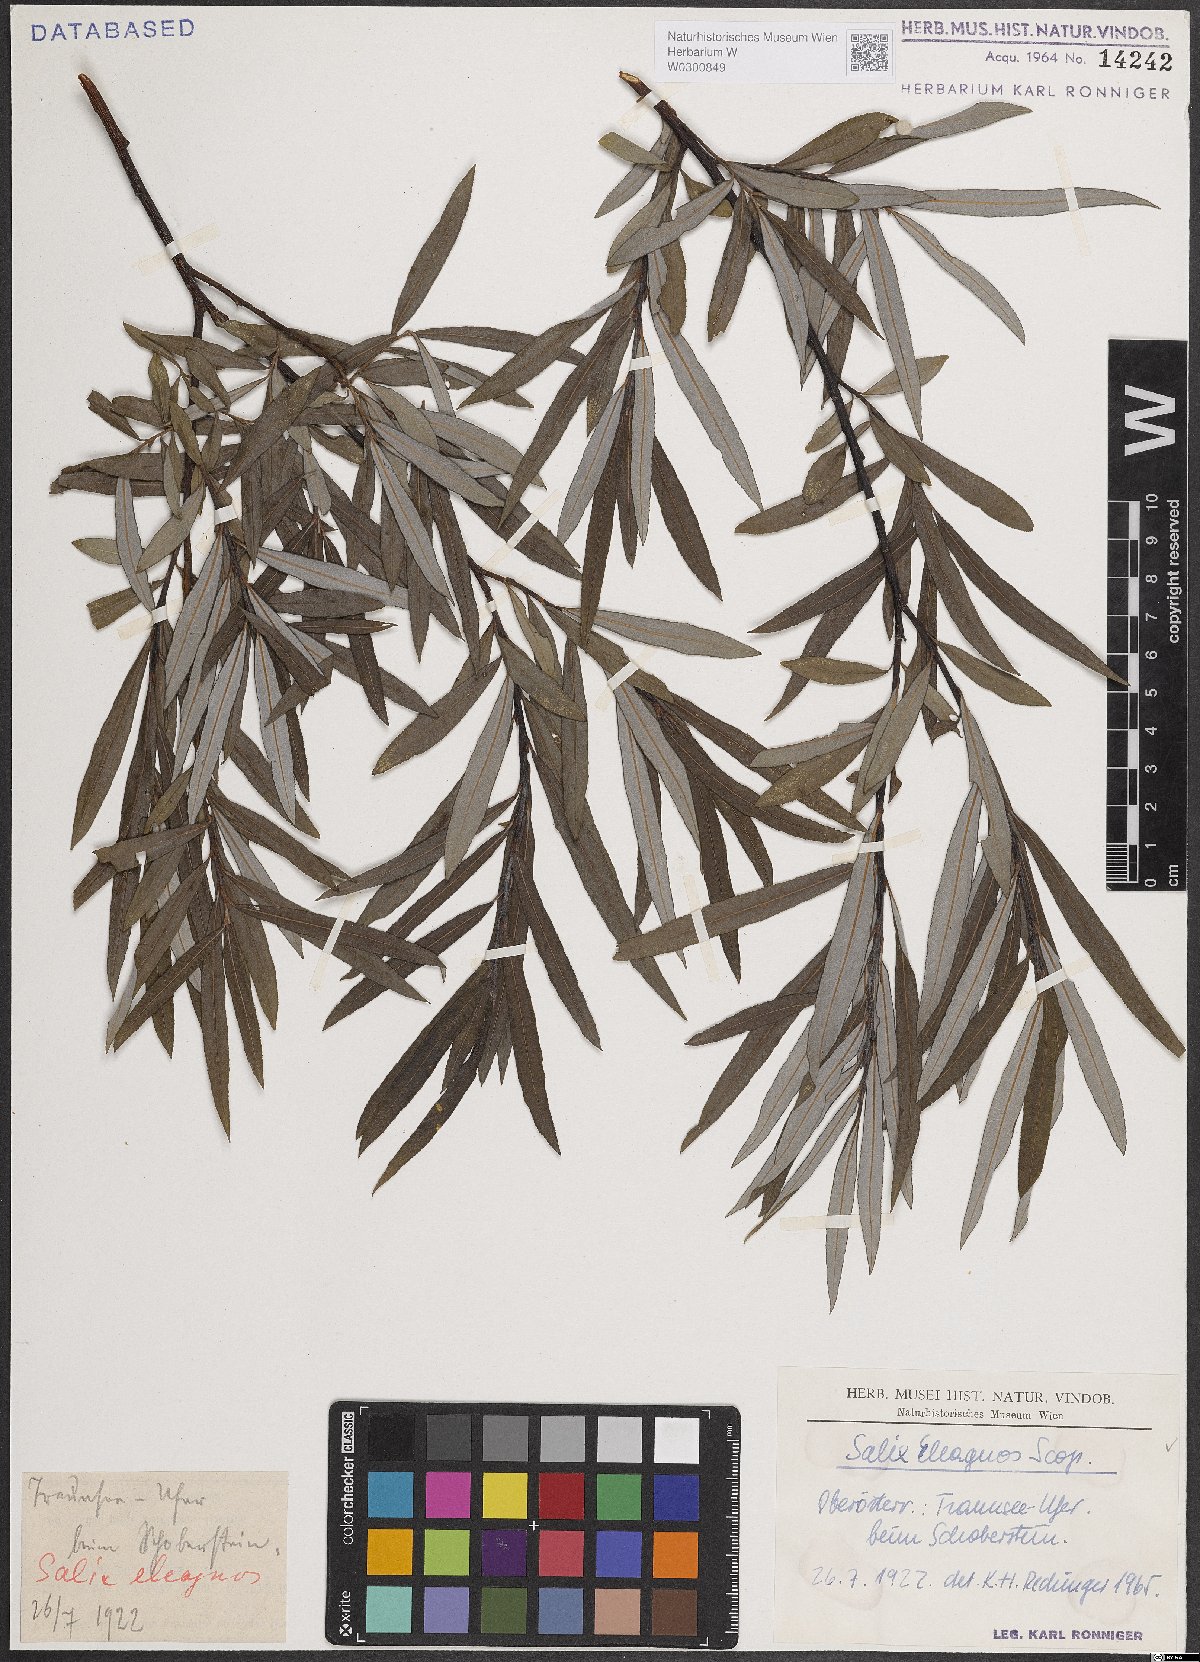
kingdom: Plantae
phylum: Tracheophyta
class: Magnoliopsida
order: Malpighiales
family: Salicaceae
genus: Salix
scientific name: Salix eleagnos
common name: Elaeagnus willow
